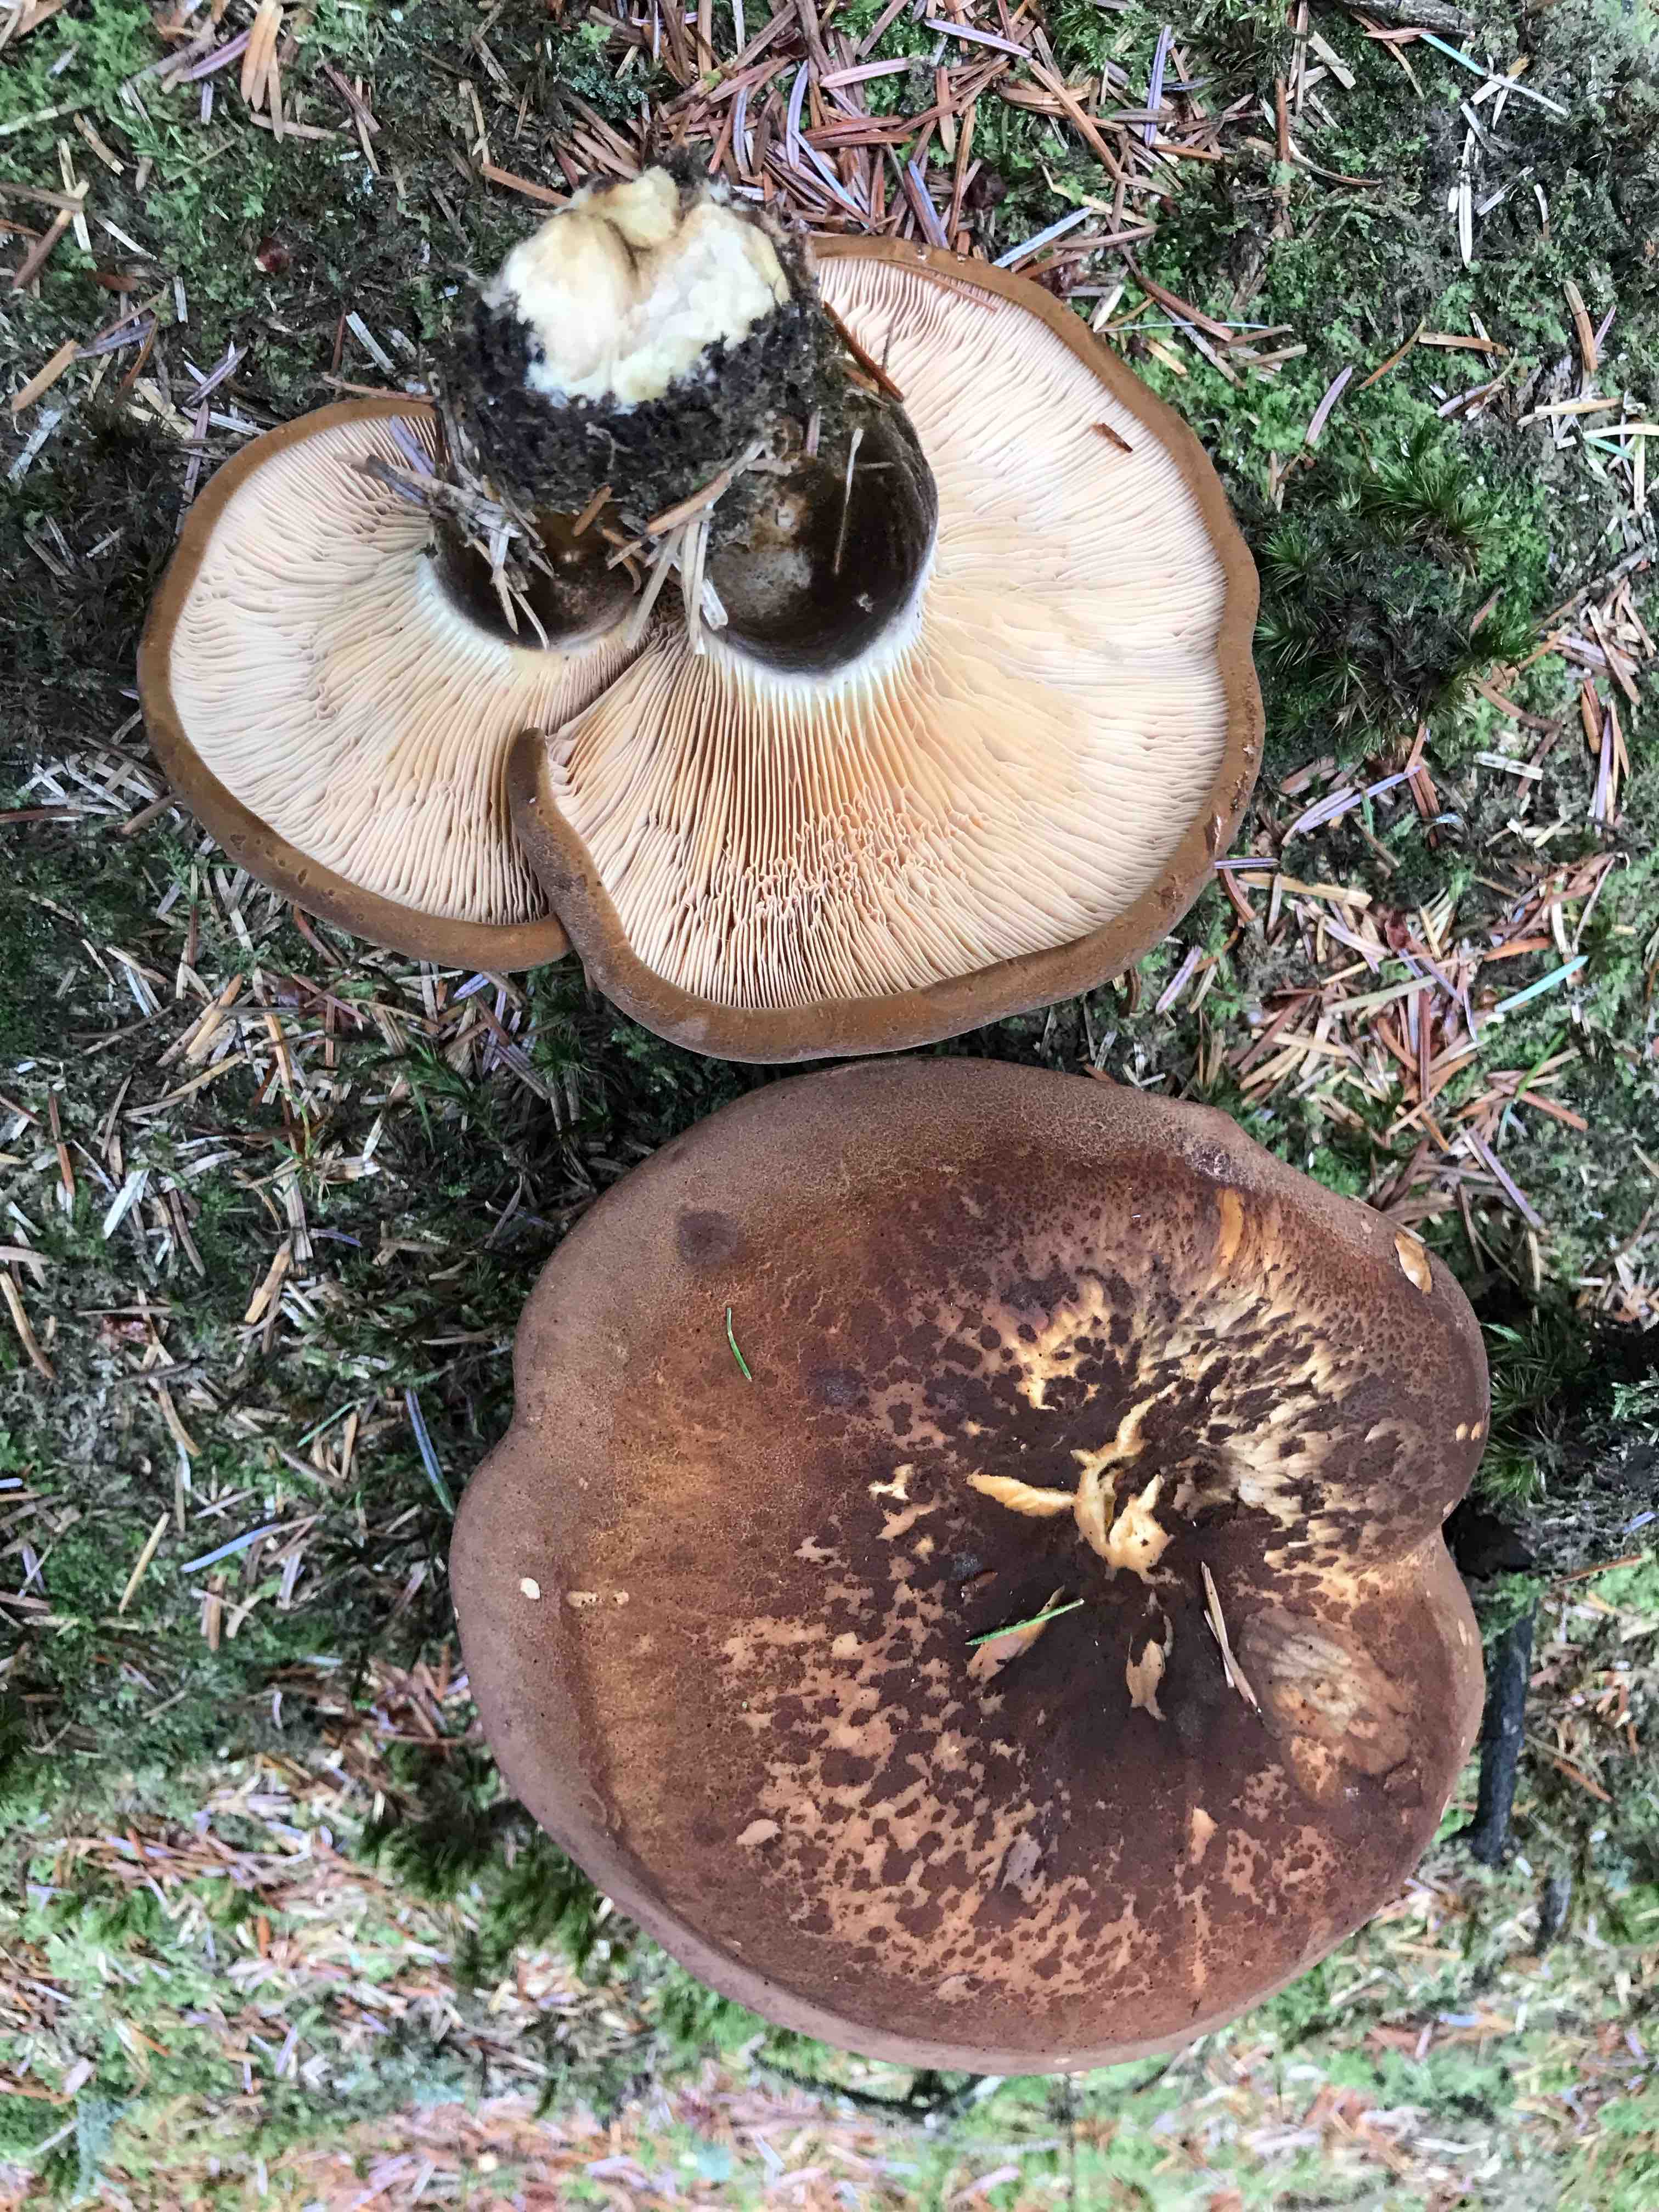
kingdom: Fungi
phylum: Basidiomycota
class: Agaricomycetes
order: Boletales
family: Tapinellaceae
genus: Tapinella
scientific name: Tapinella atrotomentosa
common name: sortfiltet viftesvamp
